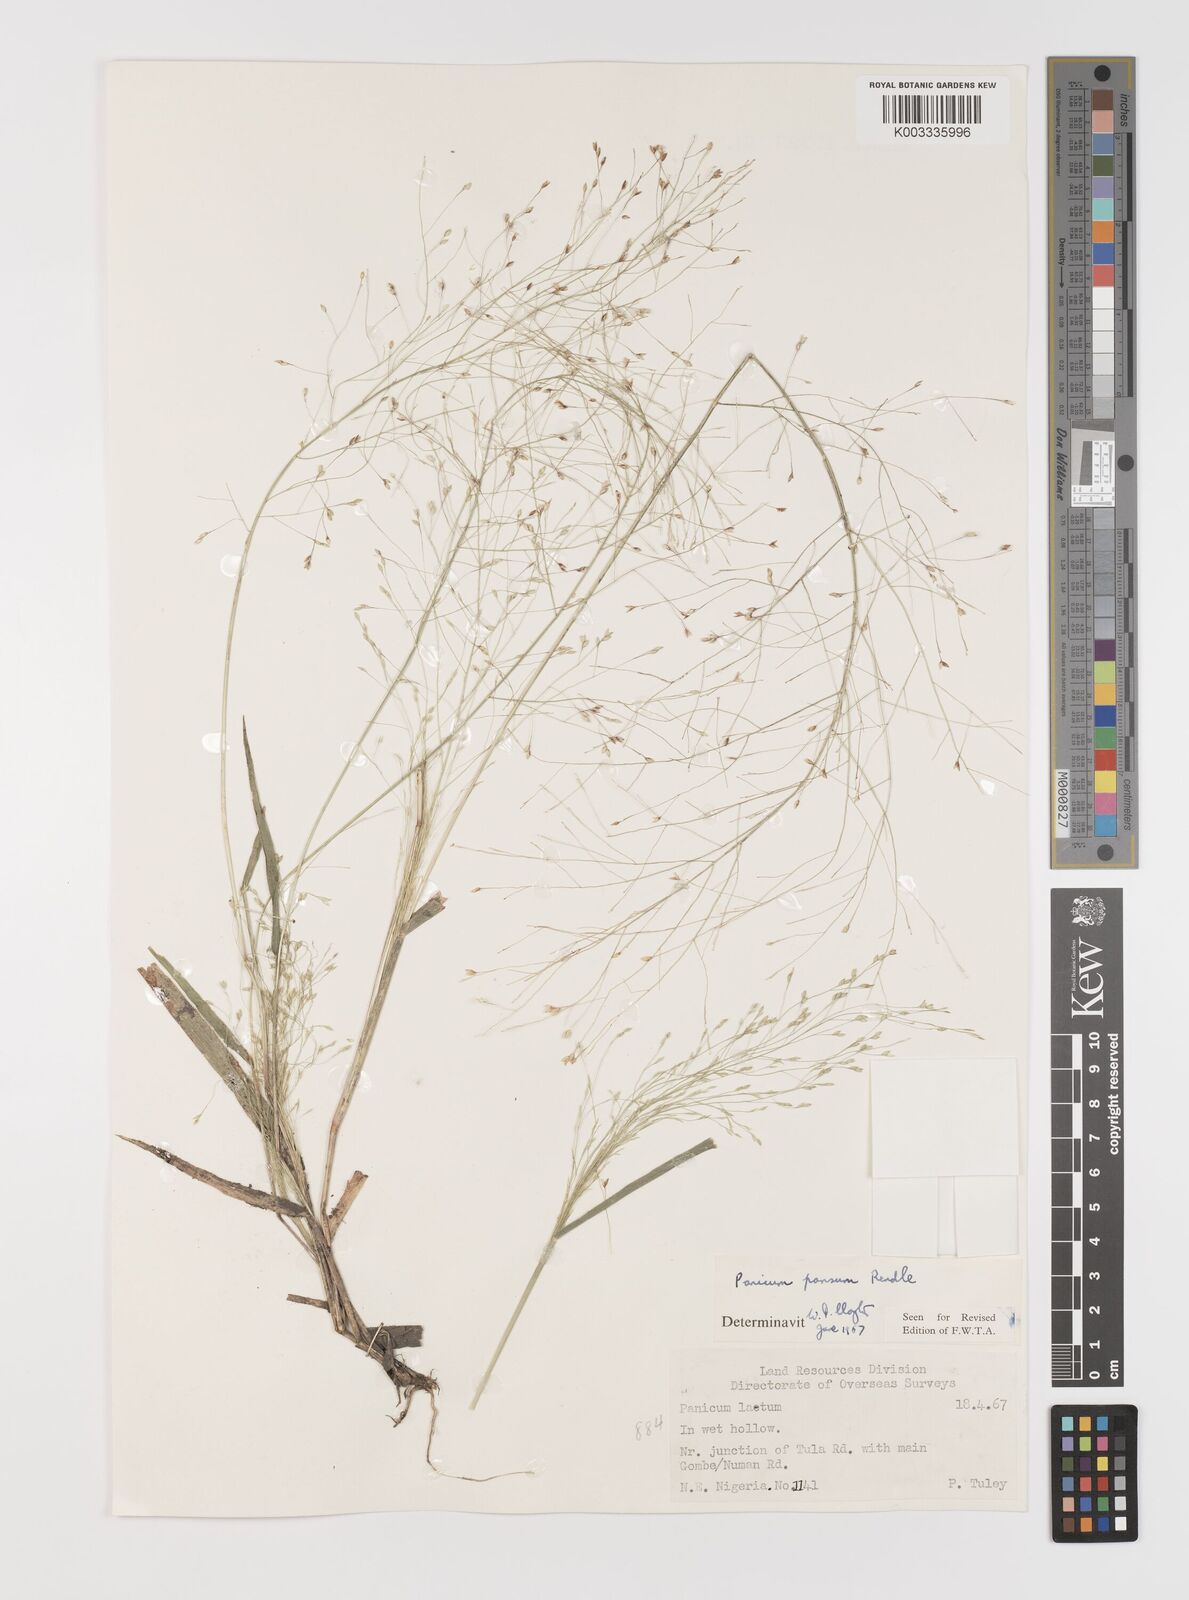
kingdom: Plantae
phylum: Tracheophyta
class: Liliopsida
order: Poales
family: Poaceae
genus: Panicum
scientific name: Panicum pansum
